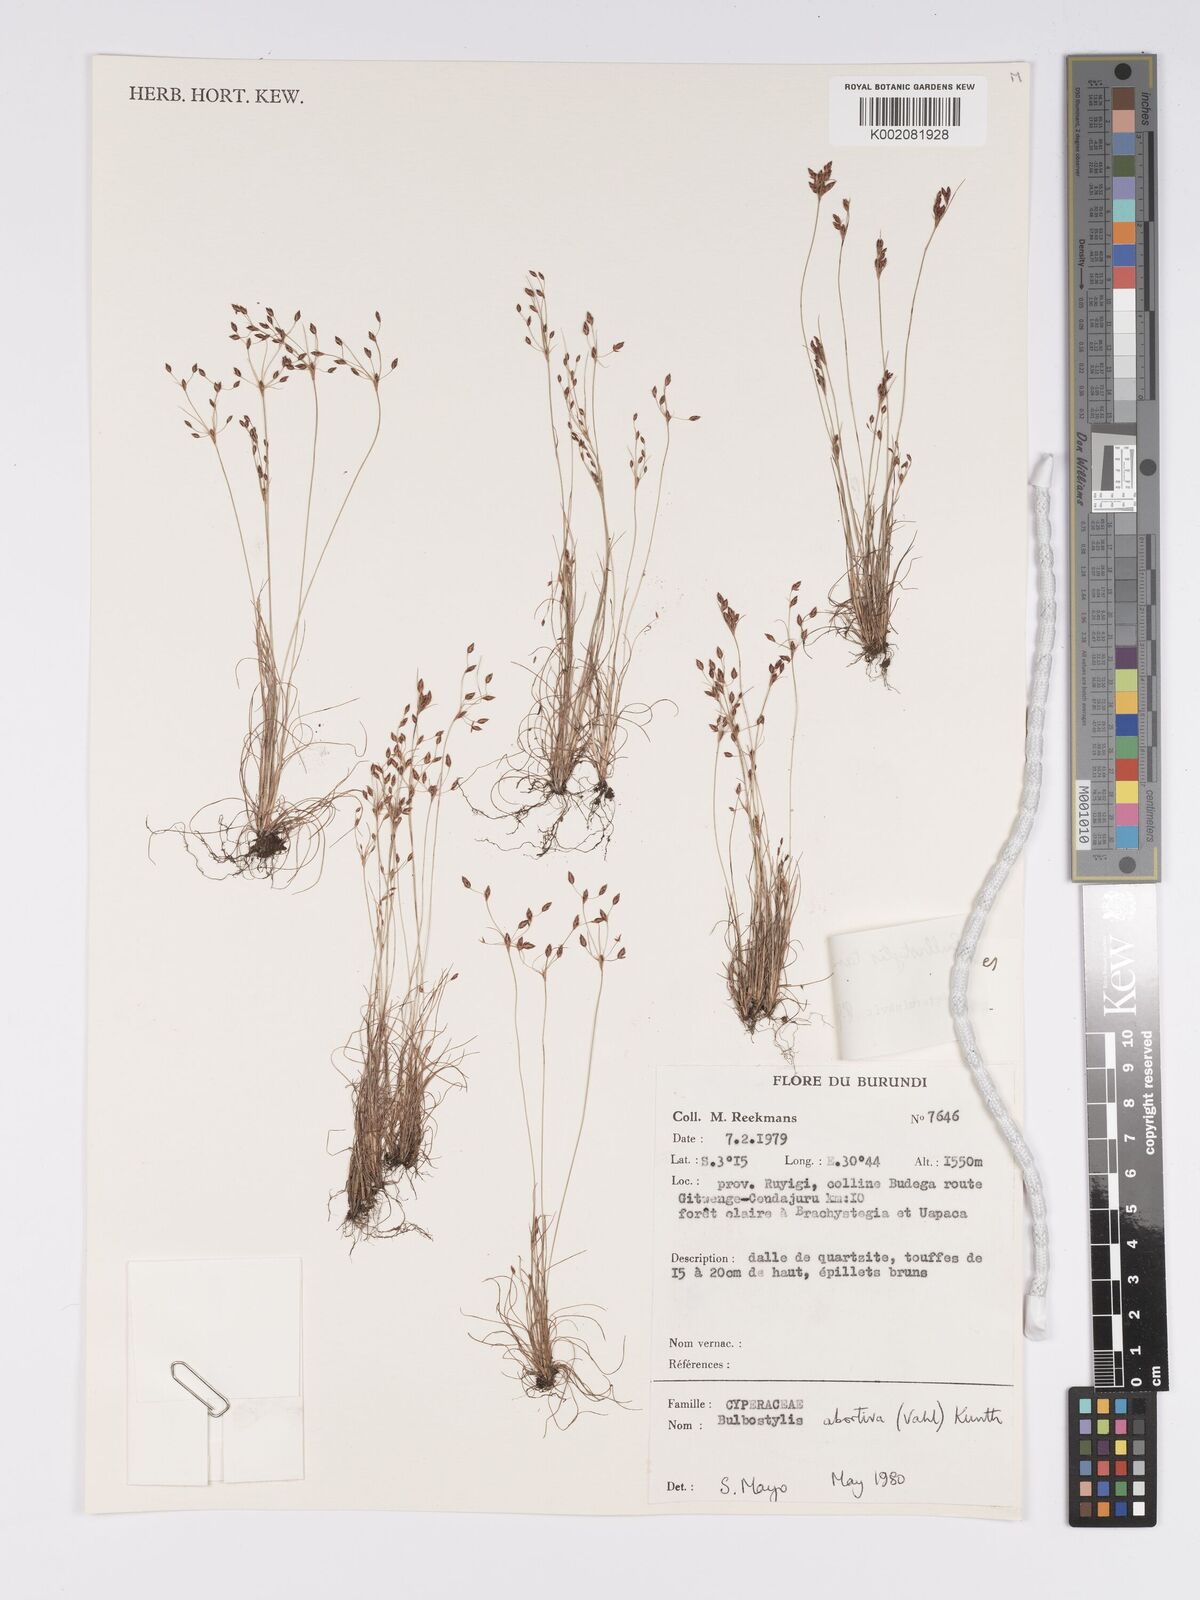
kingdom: Plantae
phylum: Tracheophyta
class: Liliopsida
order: Poales
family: Cyperaceae
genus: Bulbostylis
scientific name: Bulbostylis tanzaniae
